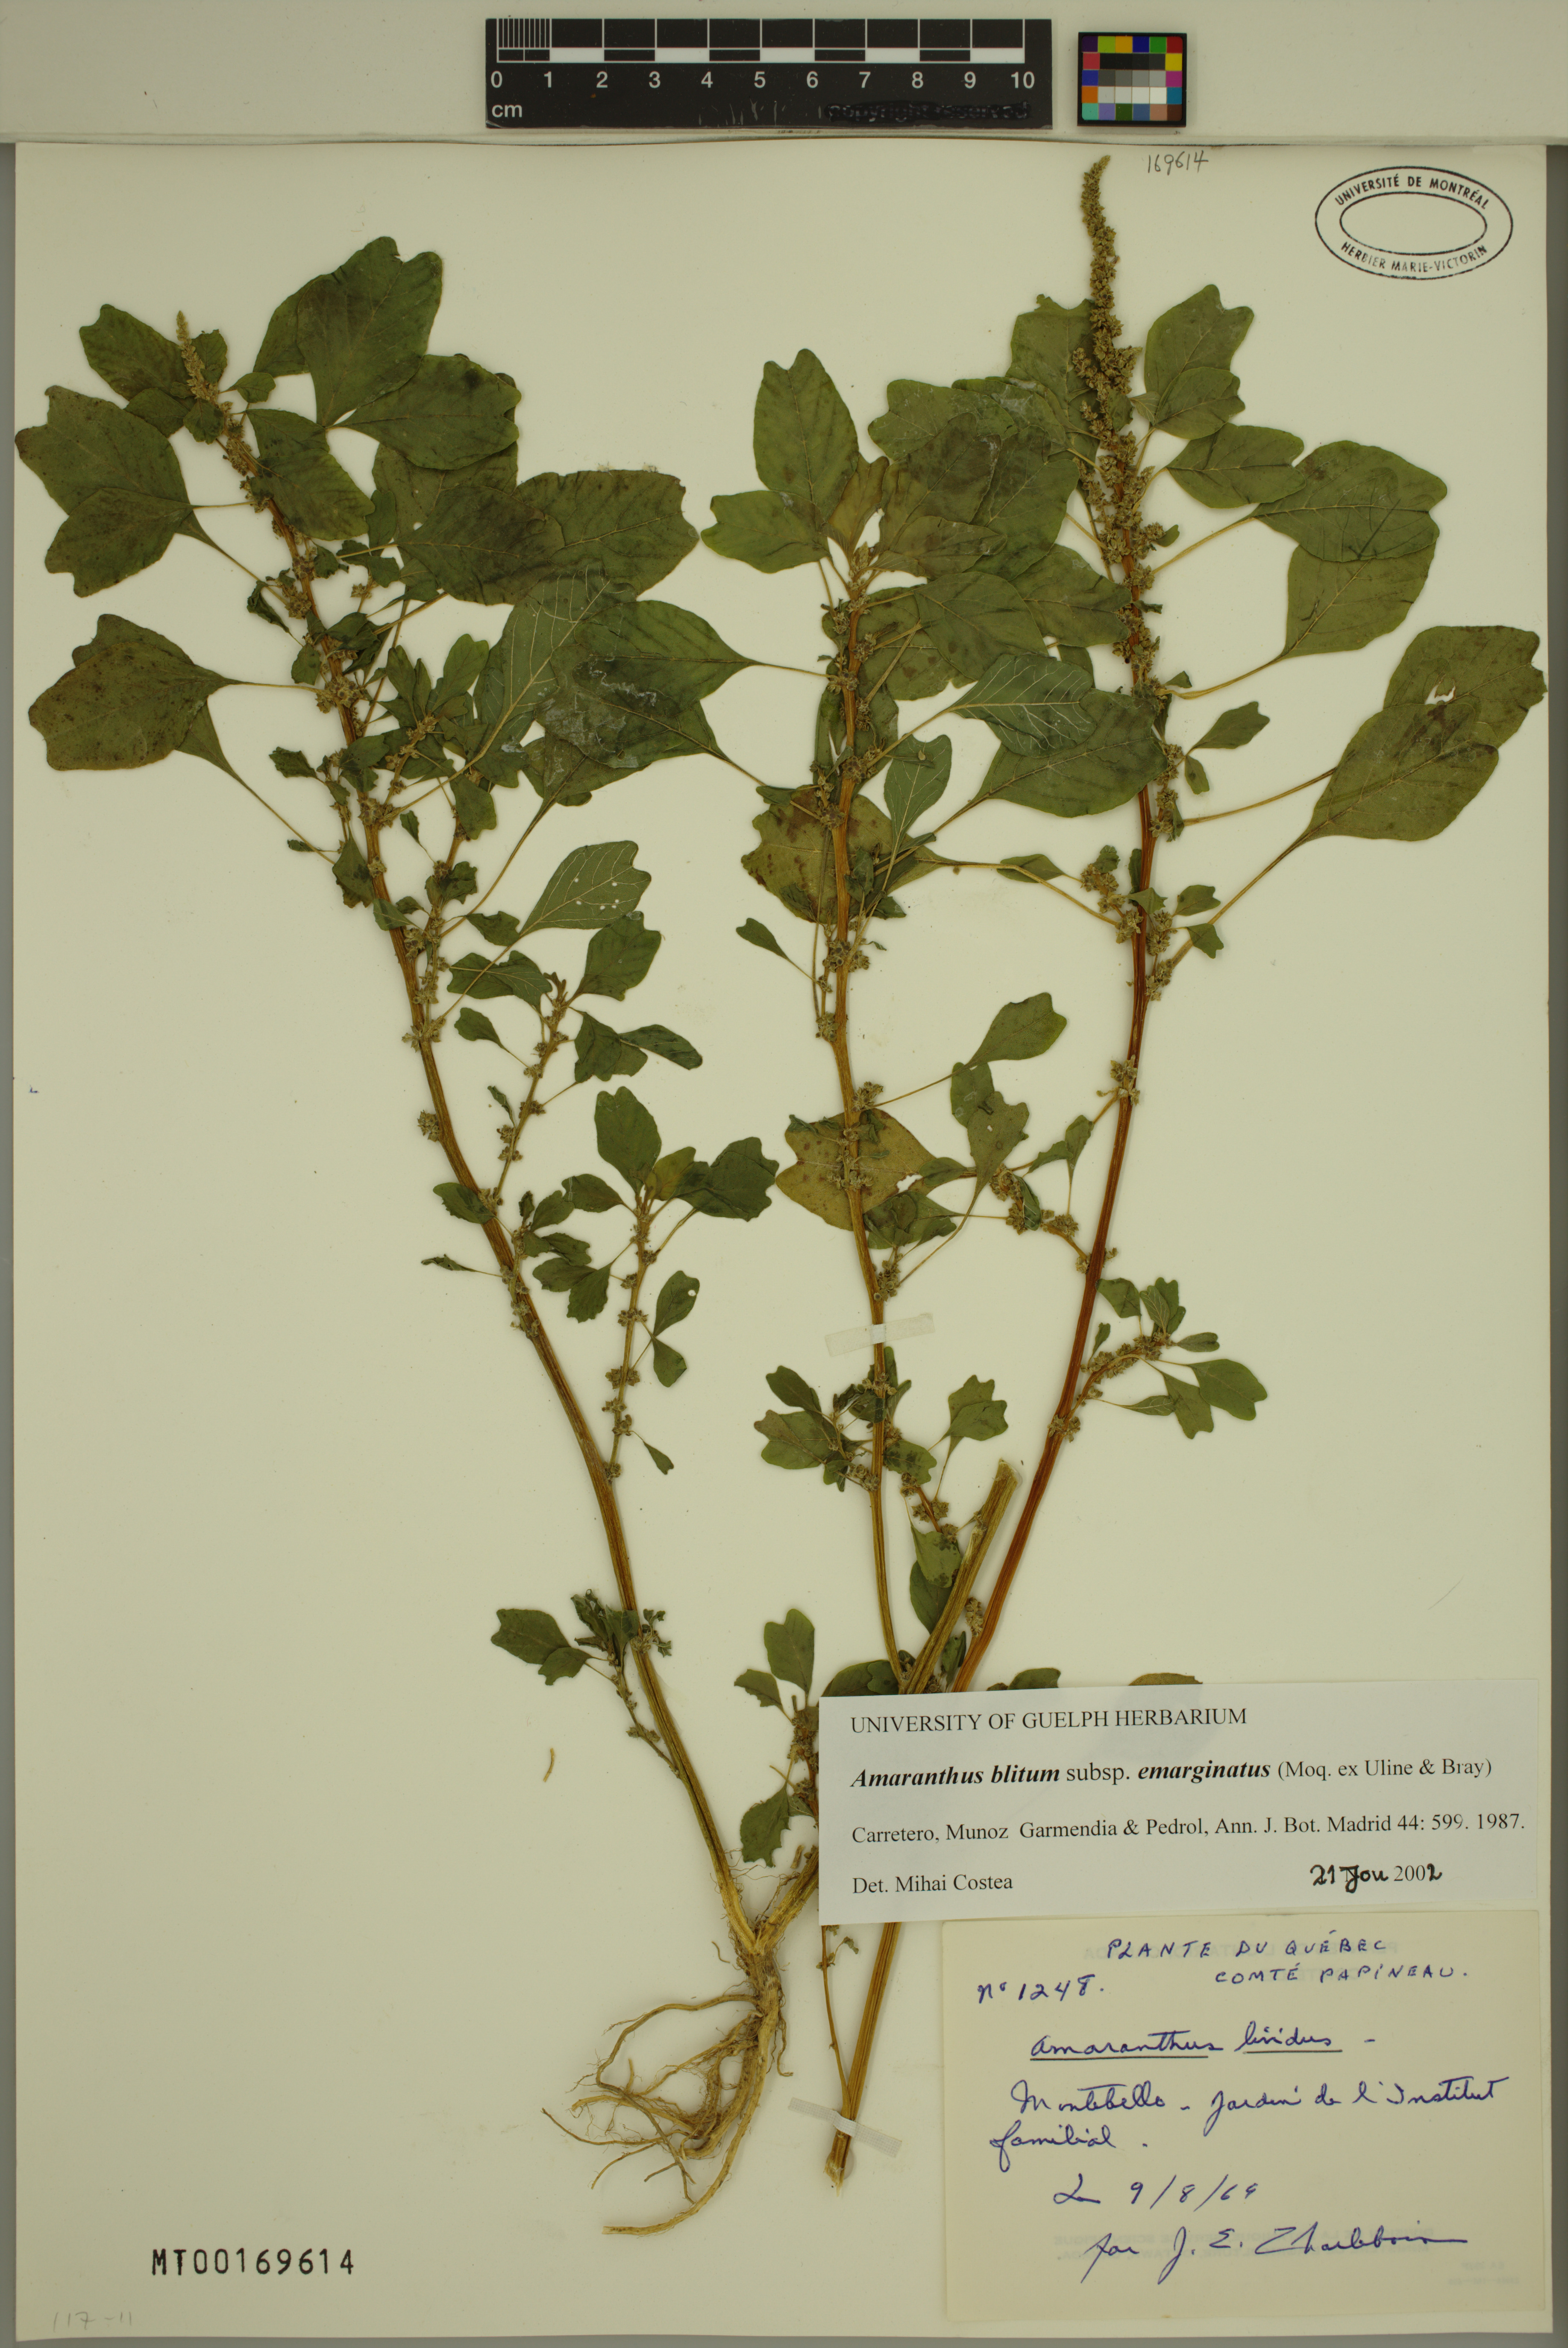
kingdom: Plantae
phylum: Tracheophyta
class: Magnoliopsida
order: Caryophyllales
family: Amaranthaceae
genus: Amaranthus
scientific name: Amaranthus emarginatus
